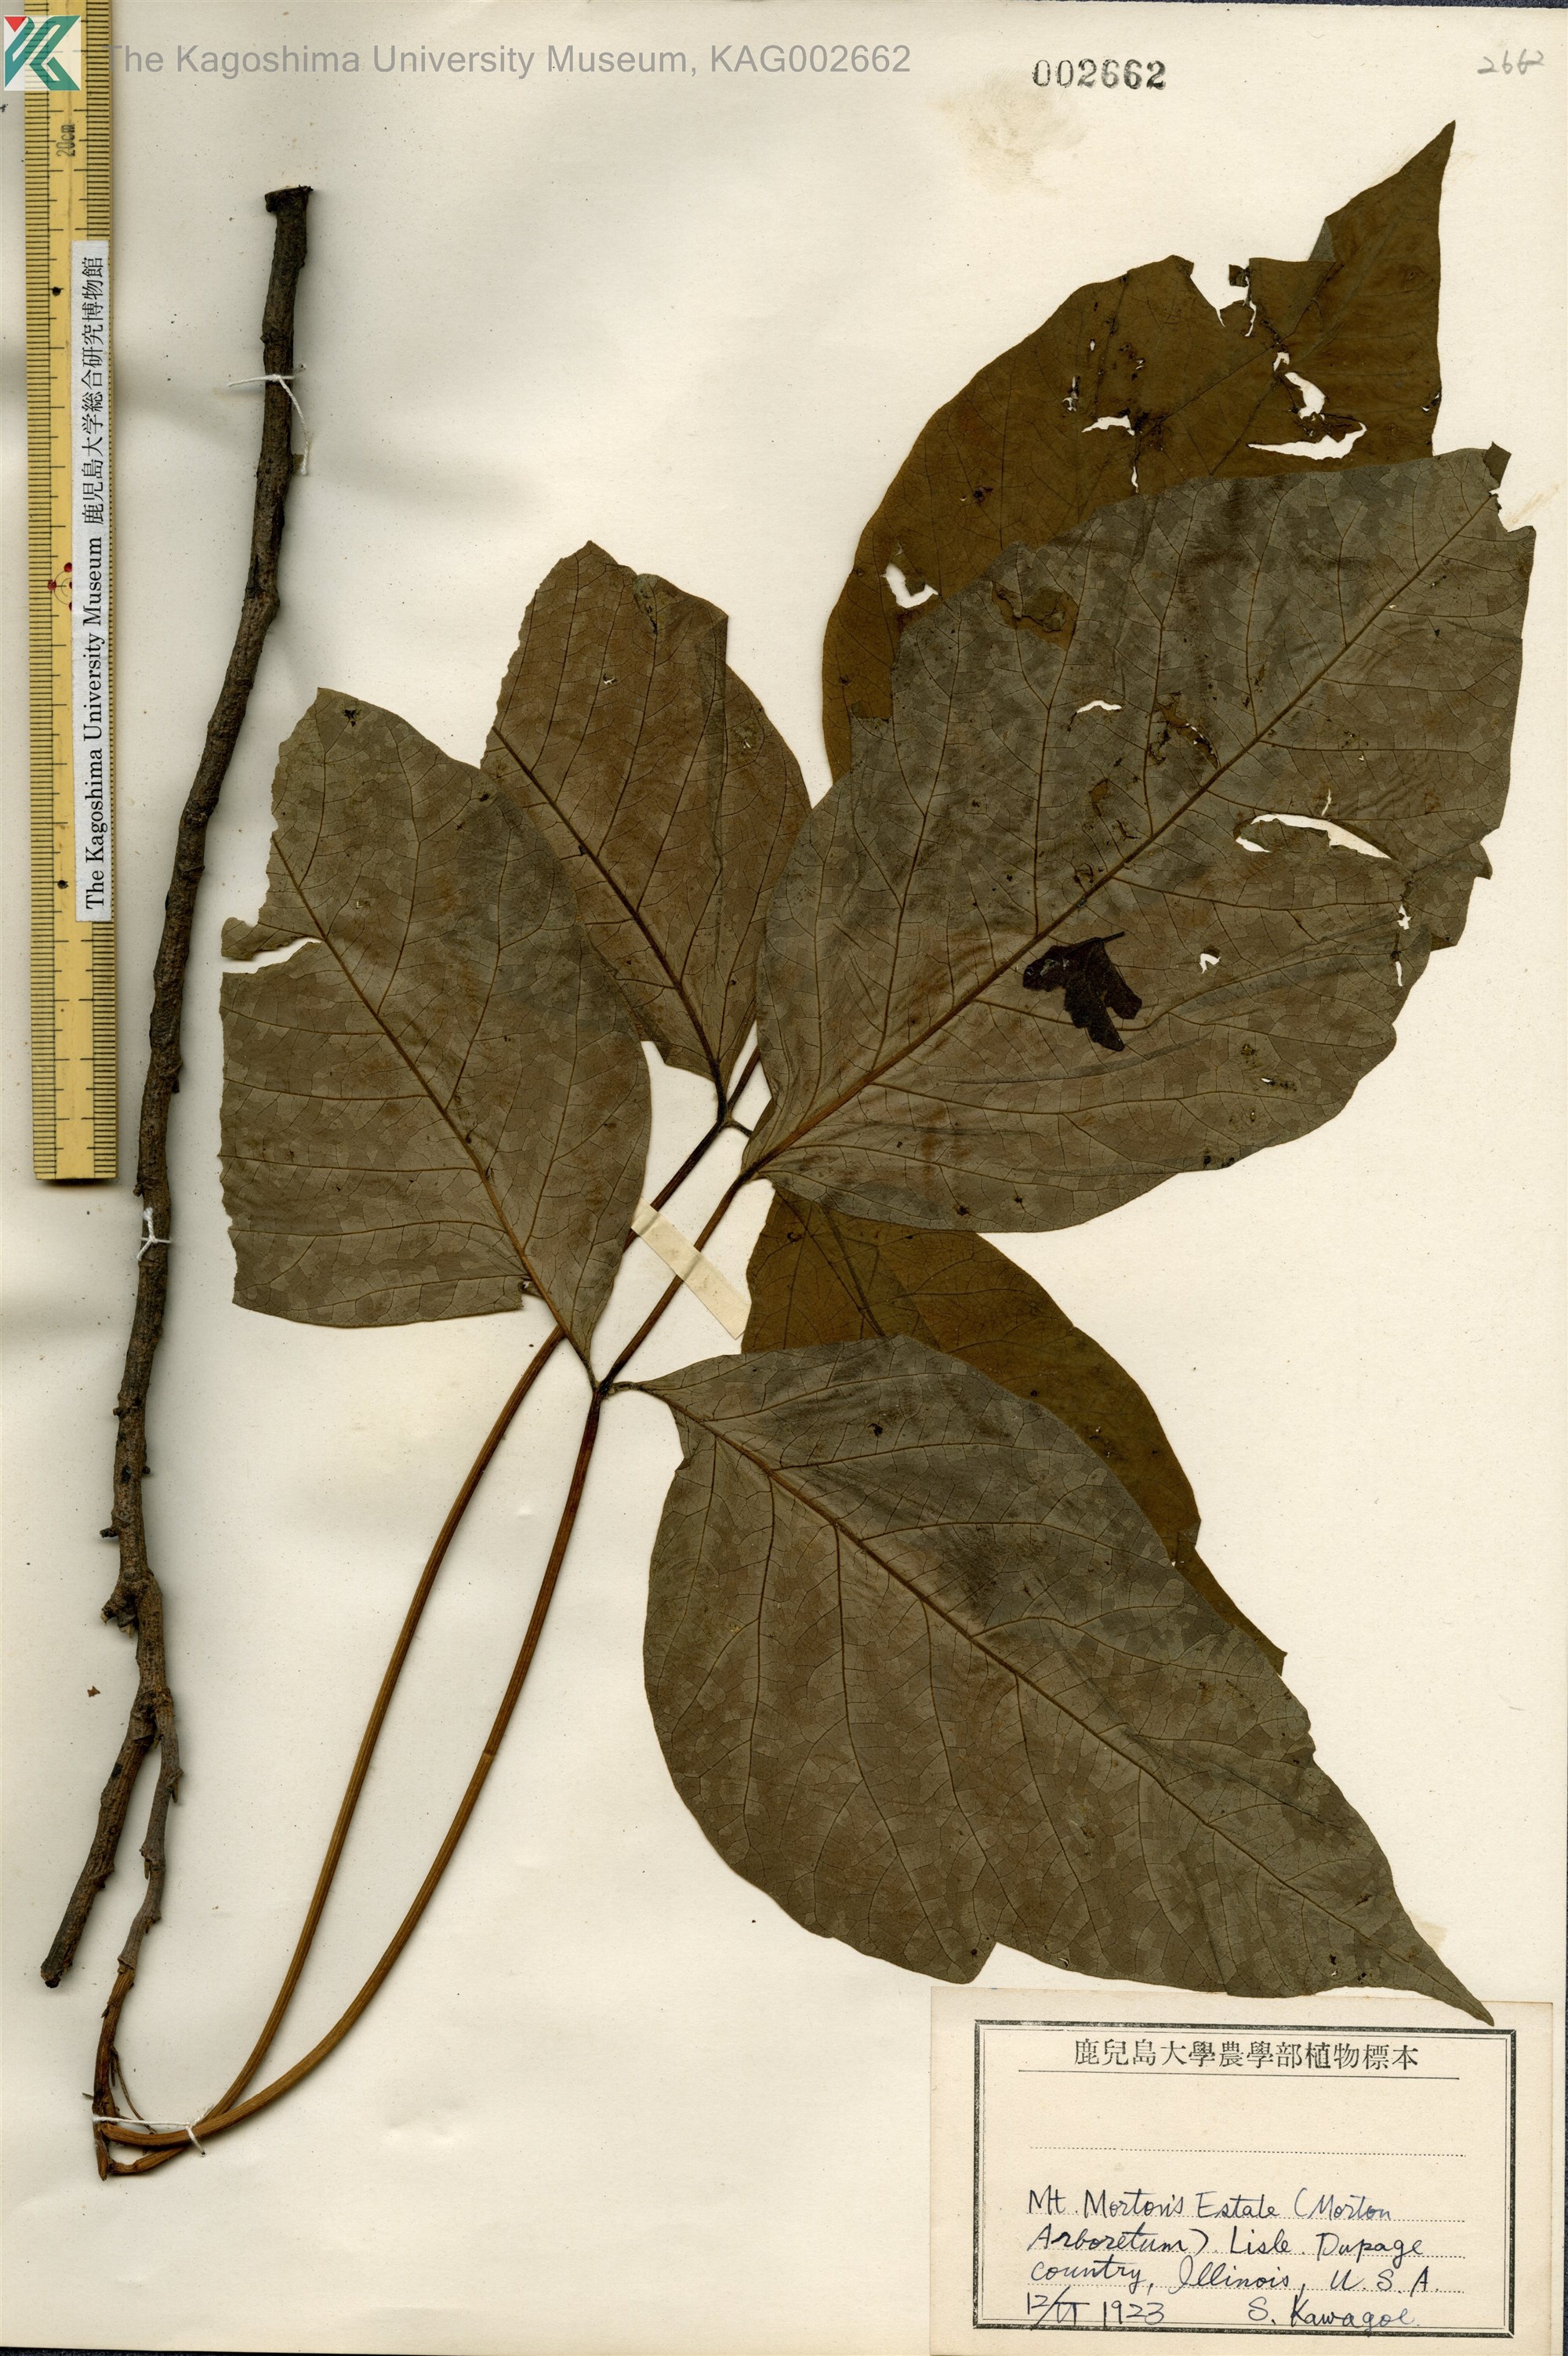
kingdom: Plantae
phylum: Tracheophyta
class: Magnoliopsida
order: Sapindales
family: Anacardiaceae
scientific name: Anacardiaceae
